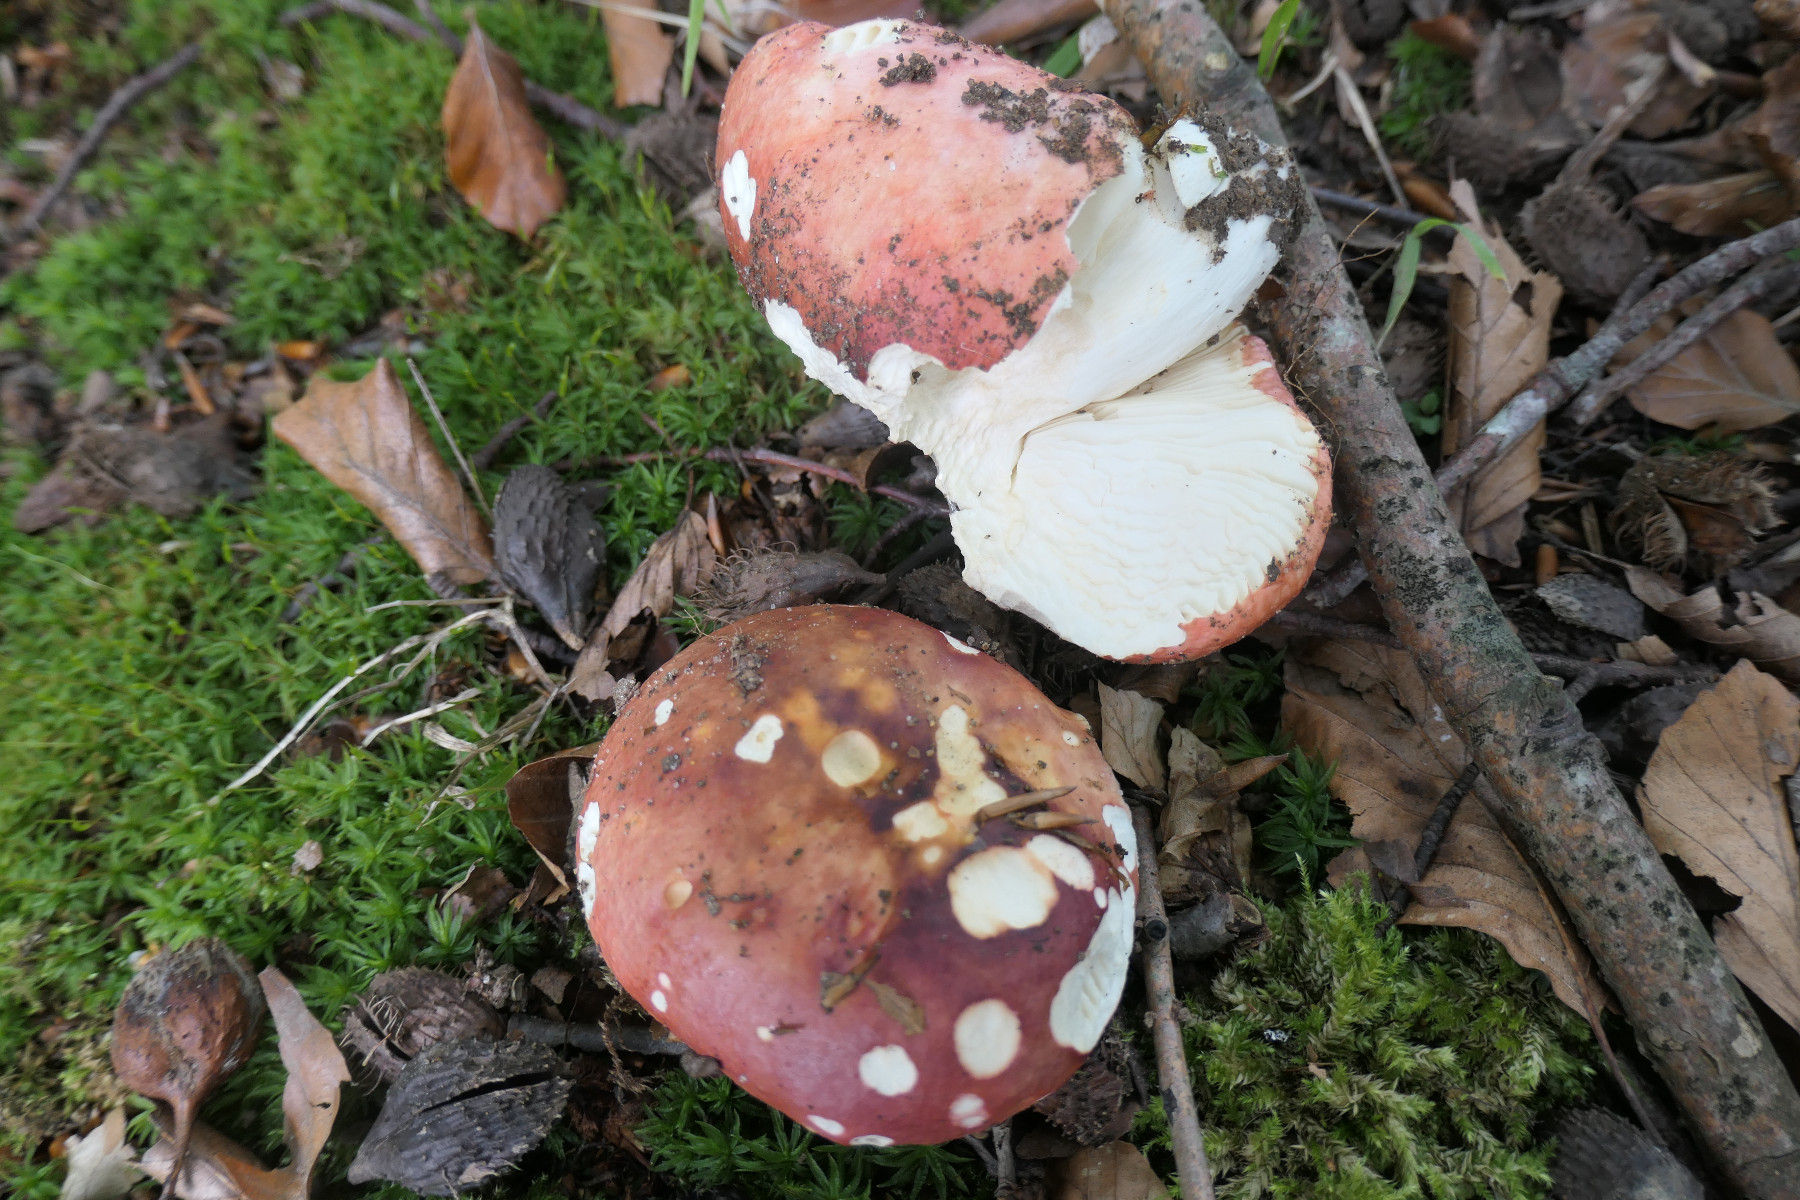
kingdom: Fungi
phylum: Basidiomycota
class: Agaricomycetes
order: Russulales
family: Russulaceae
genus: Russula
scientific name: Russula faginea
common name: bøge-skørhat
